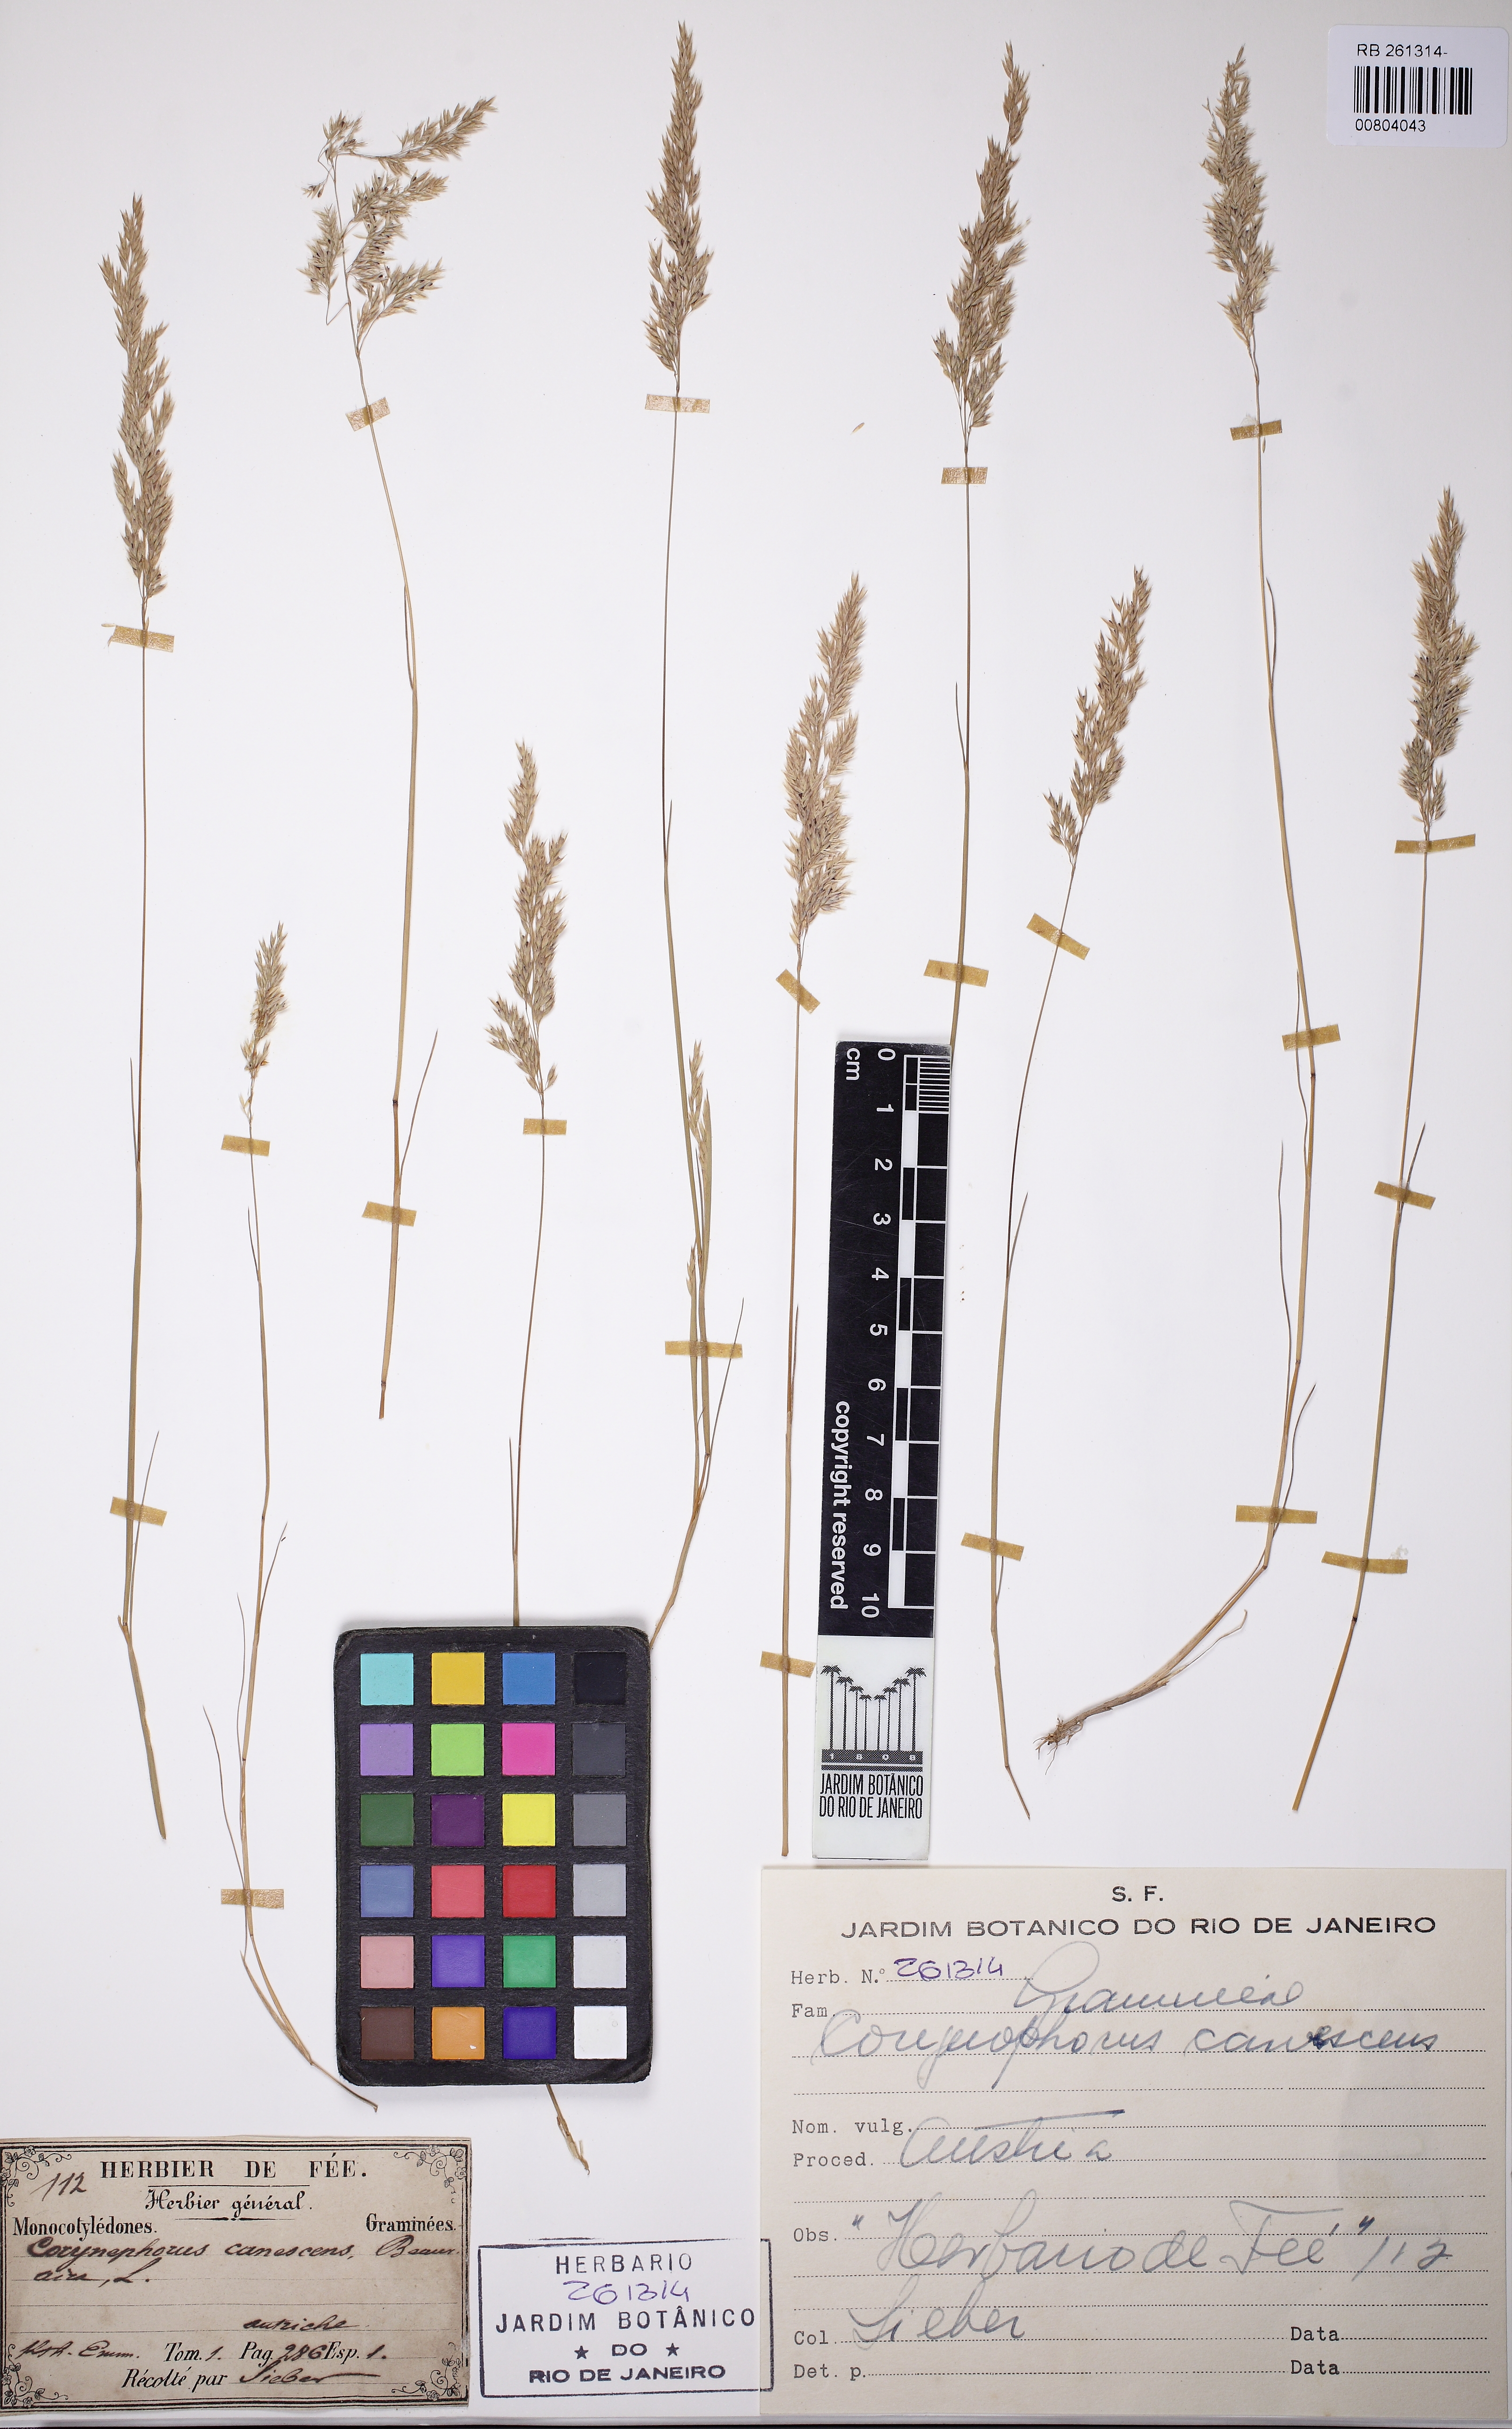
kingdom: Plantae
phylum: Tracheophyta
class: Liliopsida
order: Poales
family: Poaceae
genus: Corynephorus
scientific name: Corynephorus canescens
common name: Grey hair-grass
